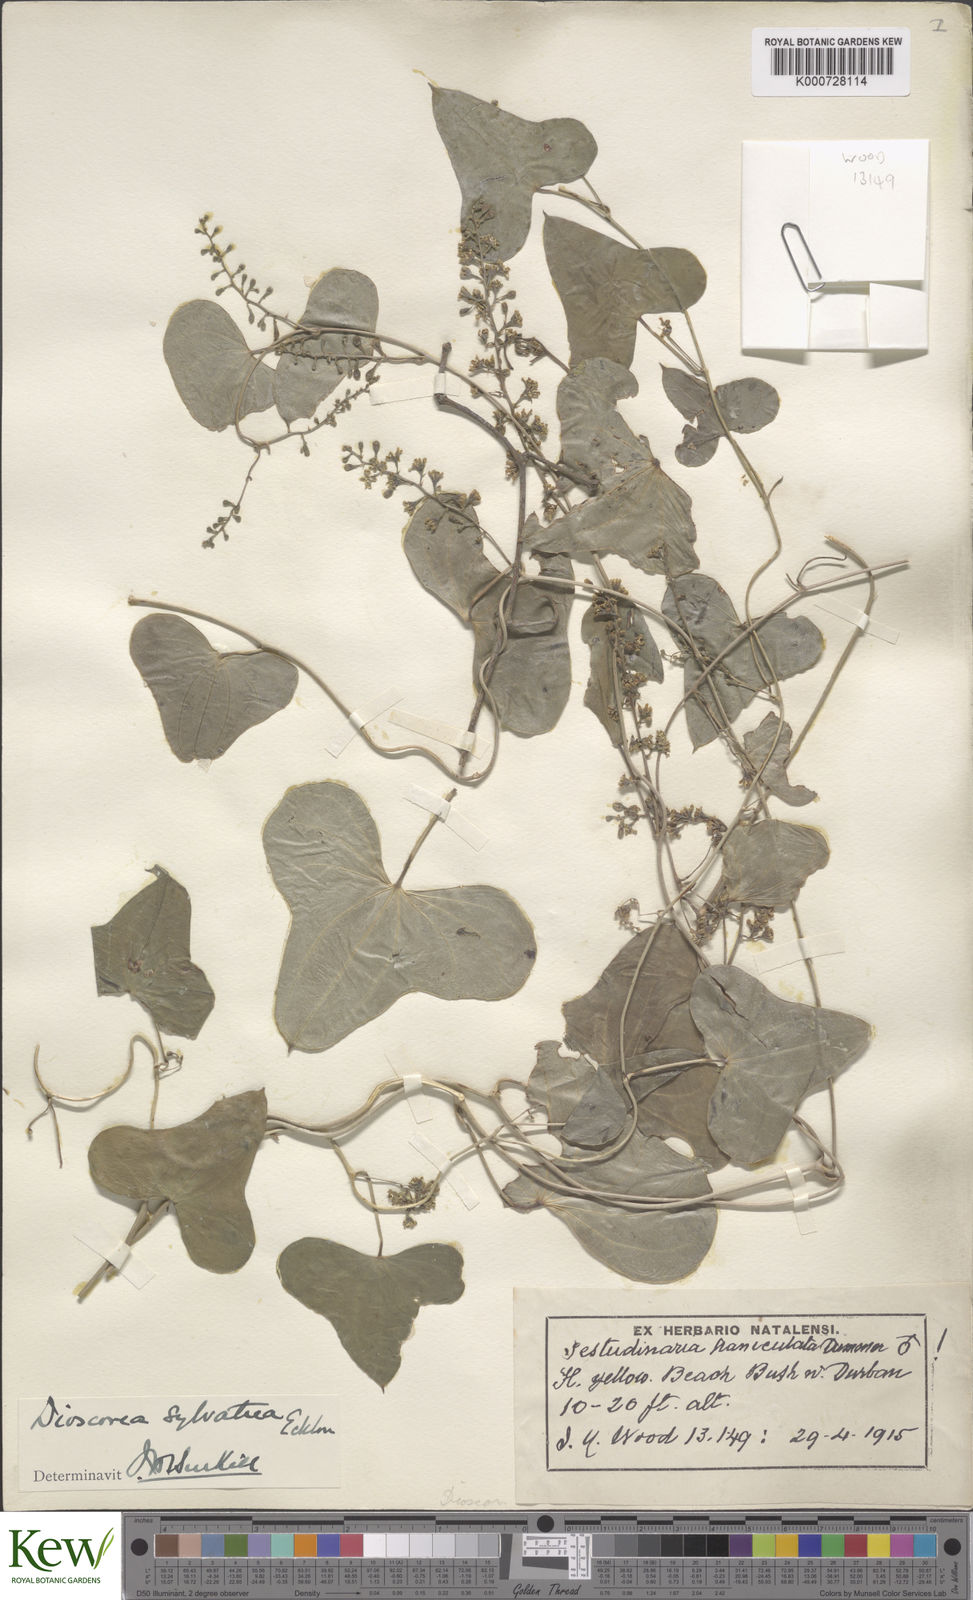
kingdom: Plantae
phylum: Tracheophyta
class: Liliopsida
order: Dioscoreales
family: Dioscoreaceae
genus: Dioscorea
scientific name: Dioscorea sylvatica
